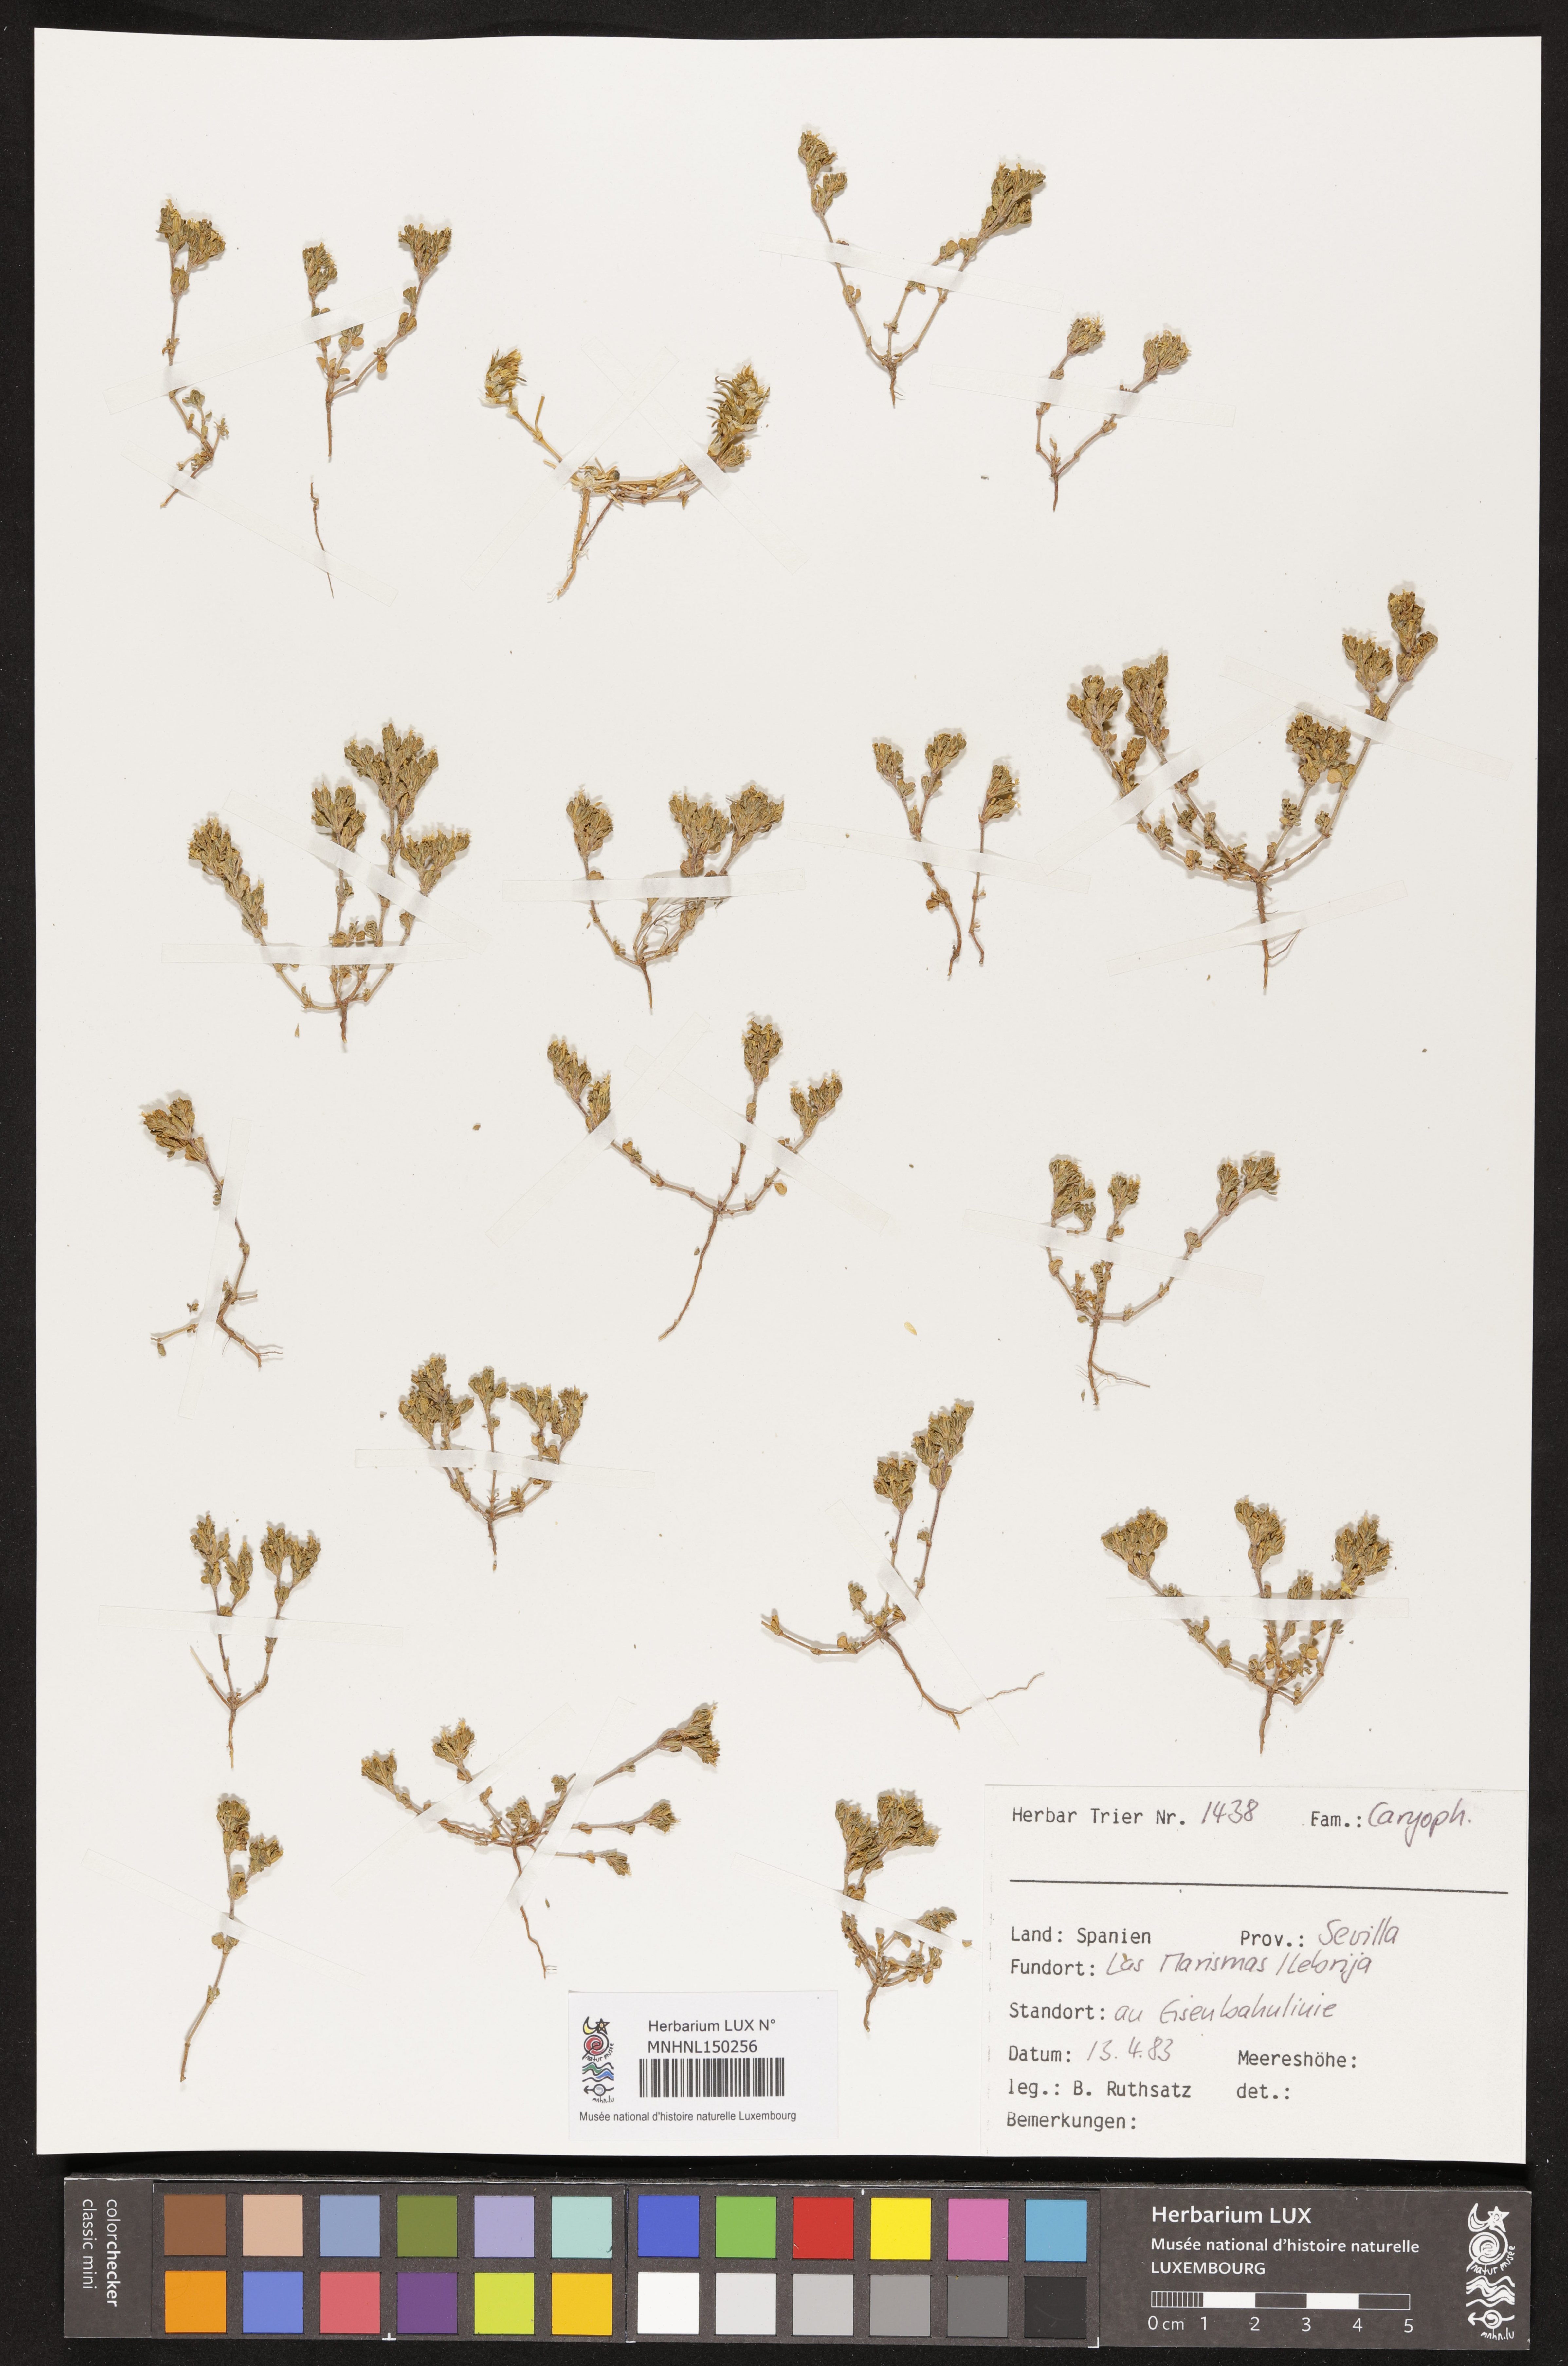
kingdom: Plantae
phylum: Tracheophyta
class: Magnoliopsida
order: Caryophyllales
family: Caryophyllaceae
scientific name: Caryophyllaceae
